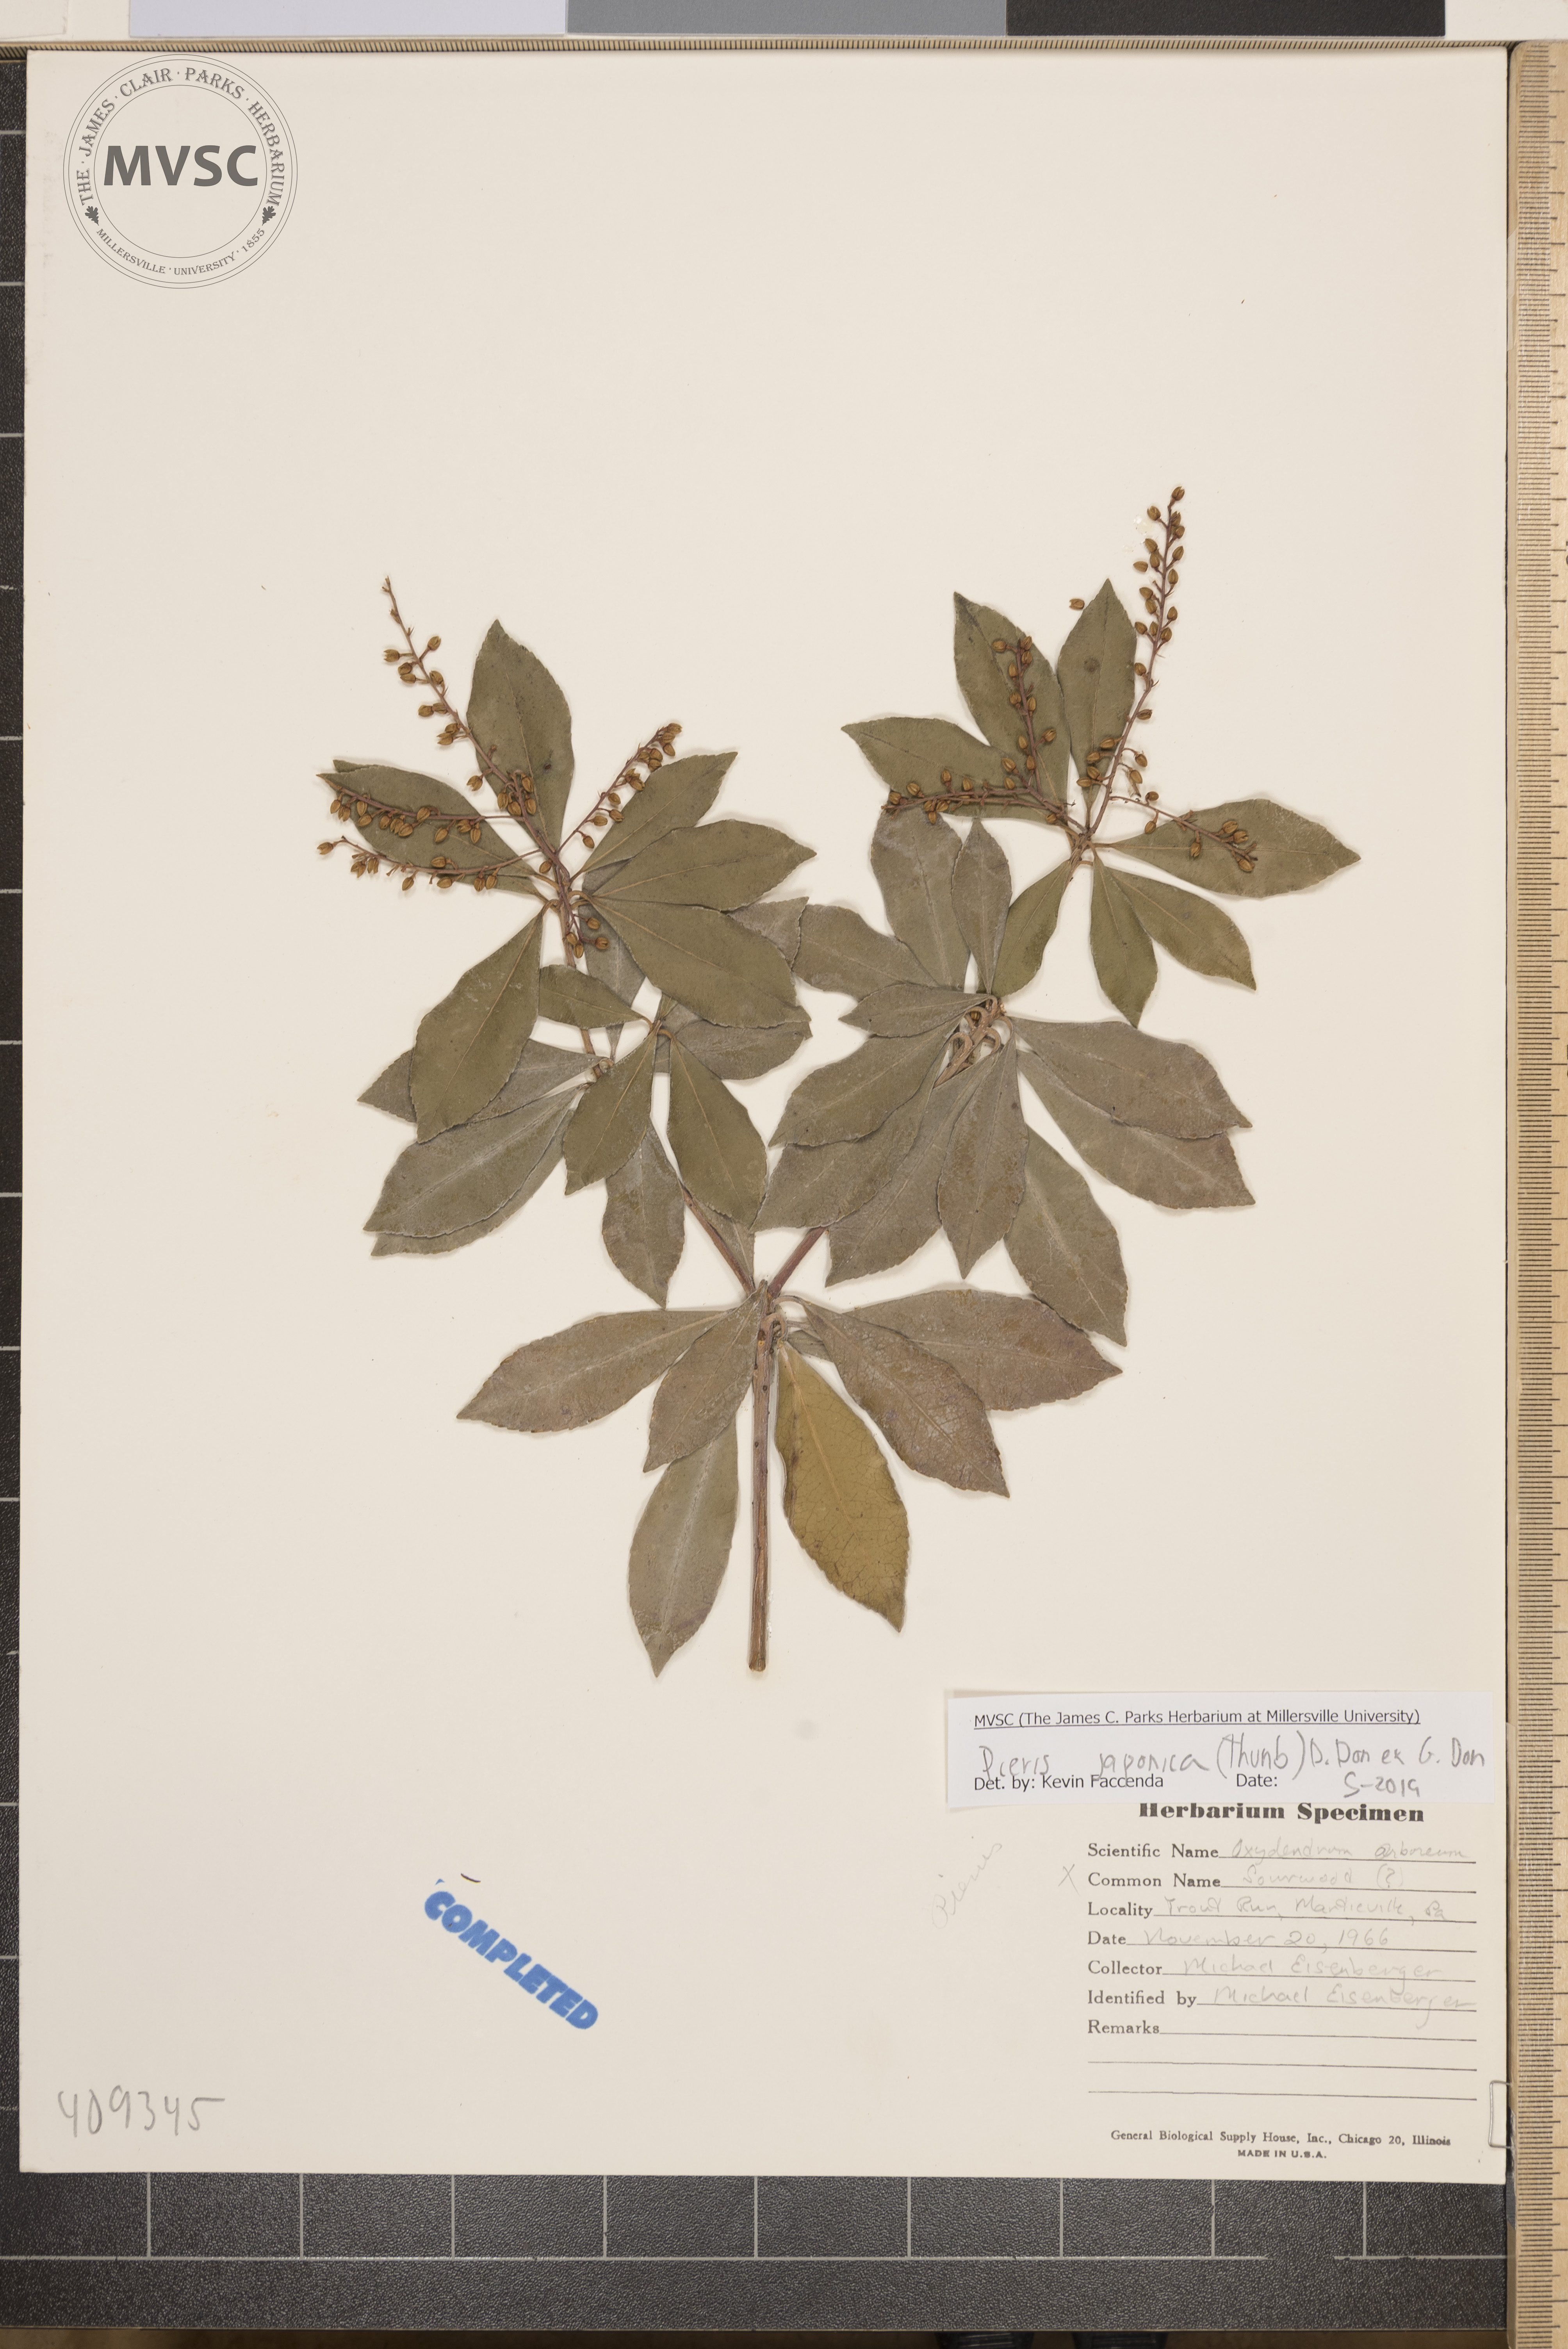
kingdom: Plantae
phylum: Tracheophyta
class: Magnoliopsida
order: Ericales
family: Ericaceae
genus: Pieris
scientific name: Pieris japonica
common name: Japanese pieris
